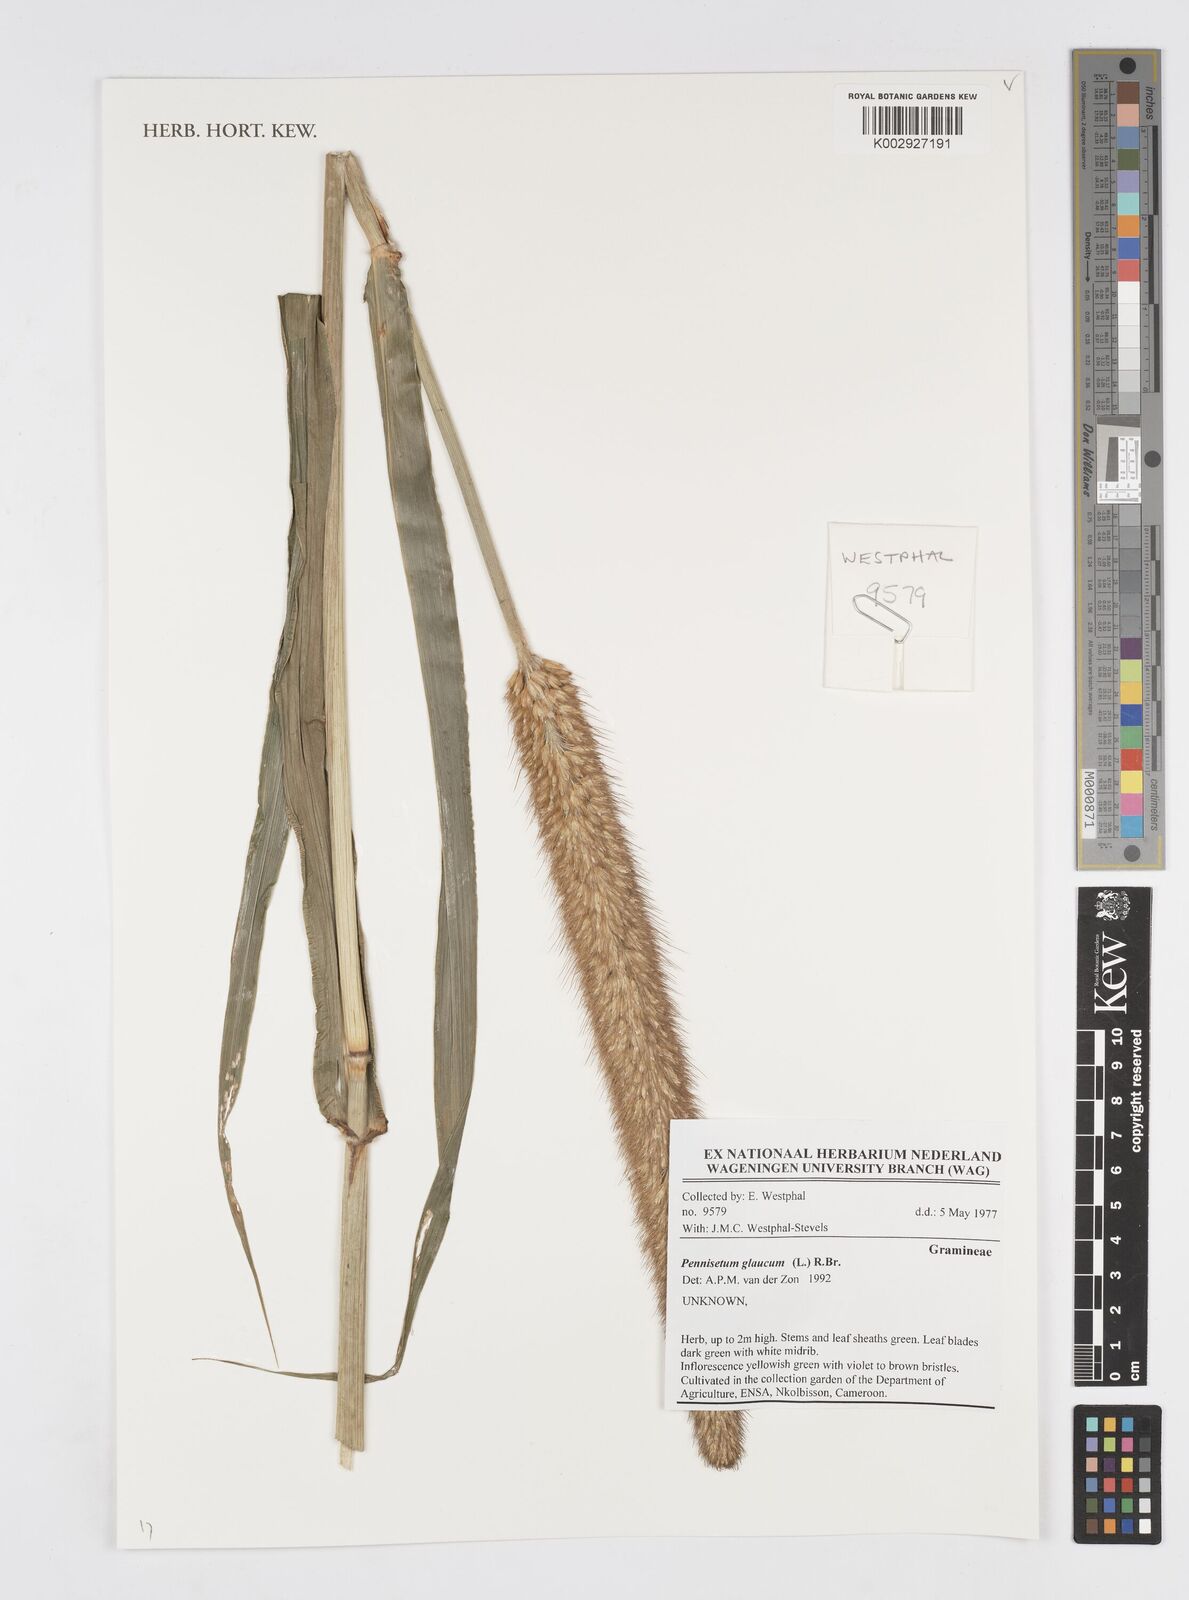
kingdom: Plantae
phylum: Tracheophyta
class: Liliopsida
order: Poales
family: Poaceae
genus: Cenchrus
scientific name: Cenchrus americanus
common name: Pearl millet
